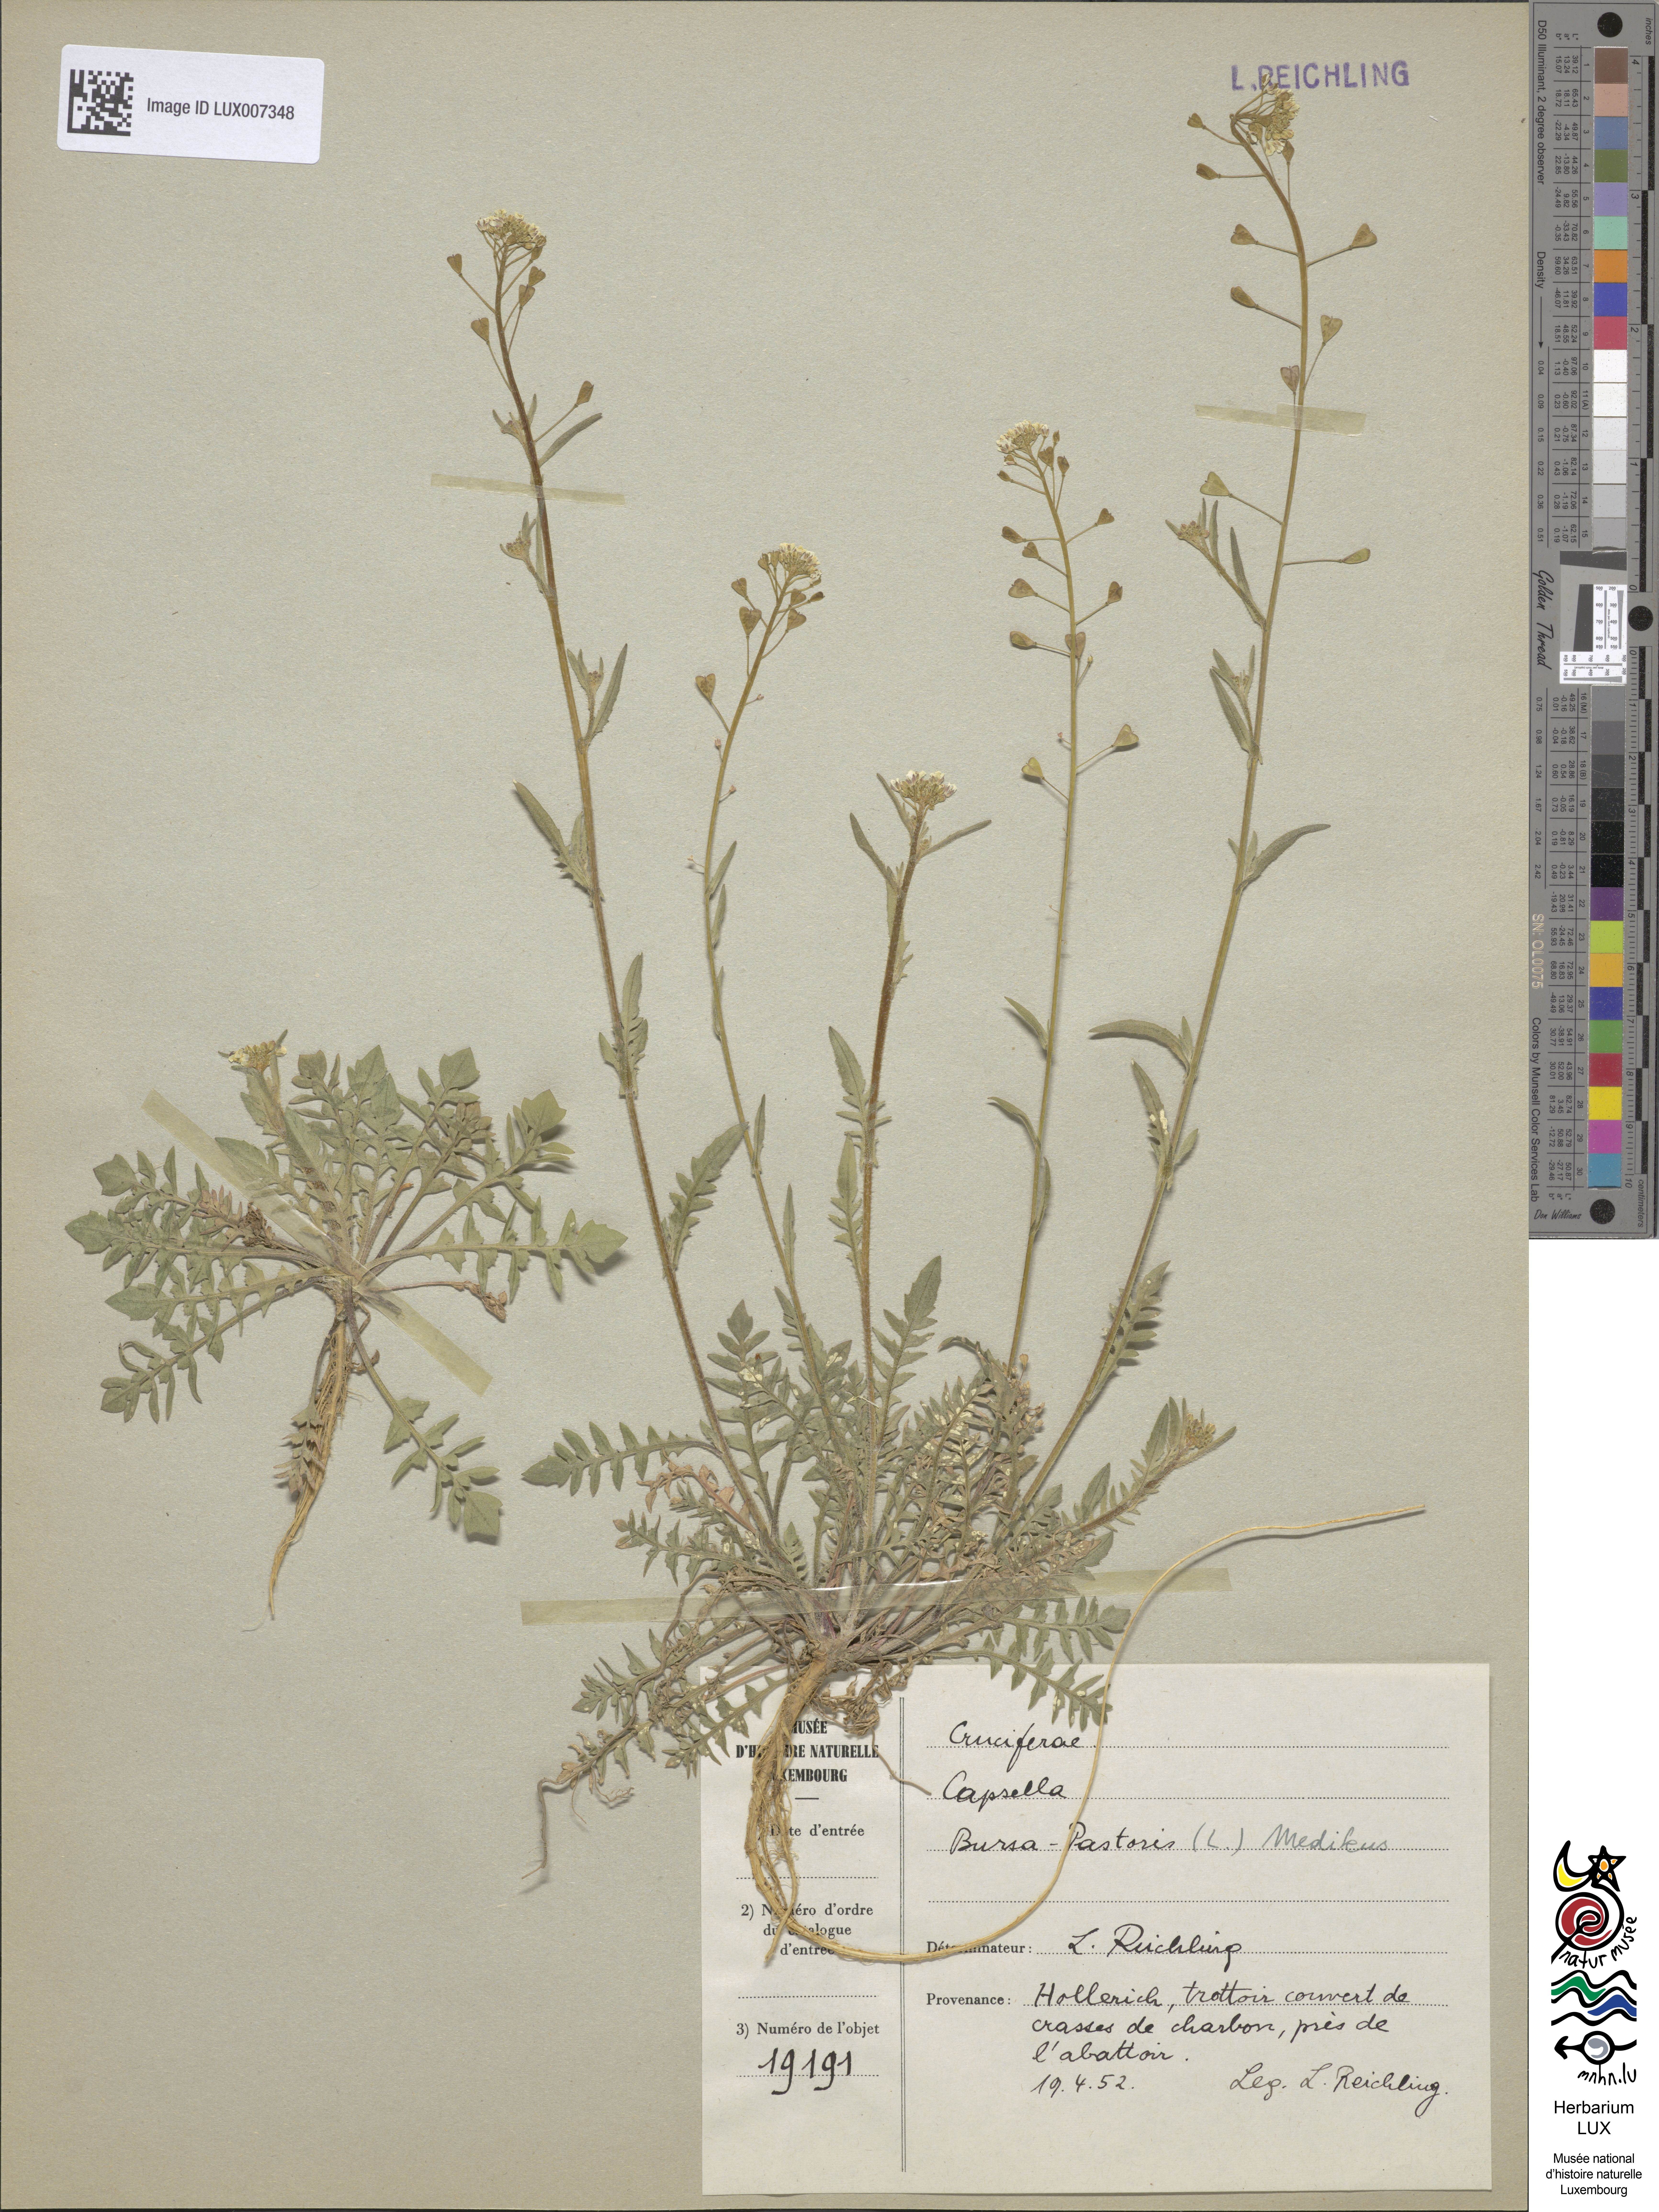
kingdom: Plantae
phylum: Tracheophyta
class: Magnoliopsida
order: Brassicales
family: Brassicaceae
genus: Capsella
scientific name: Capsella bursa-pastoris
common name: Shepherd's purse
